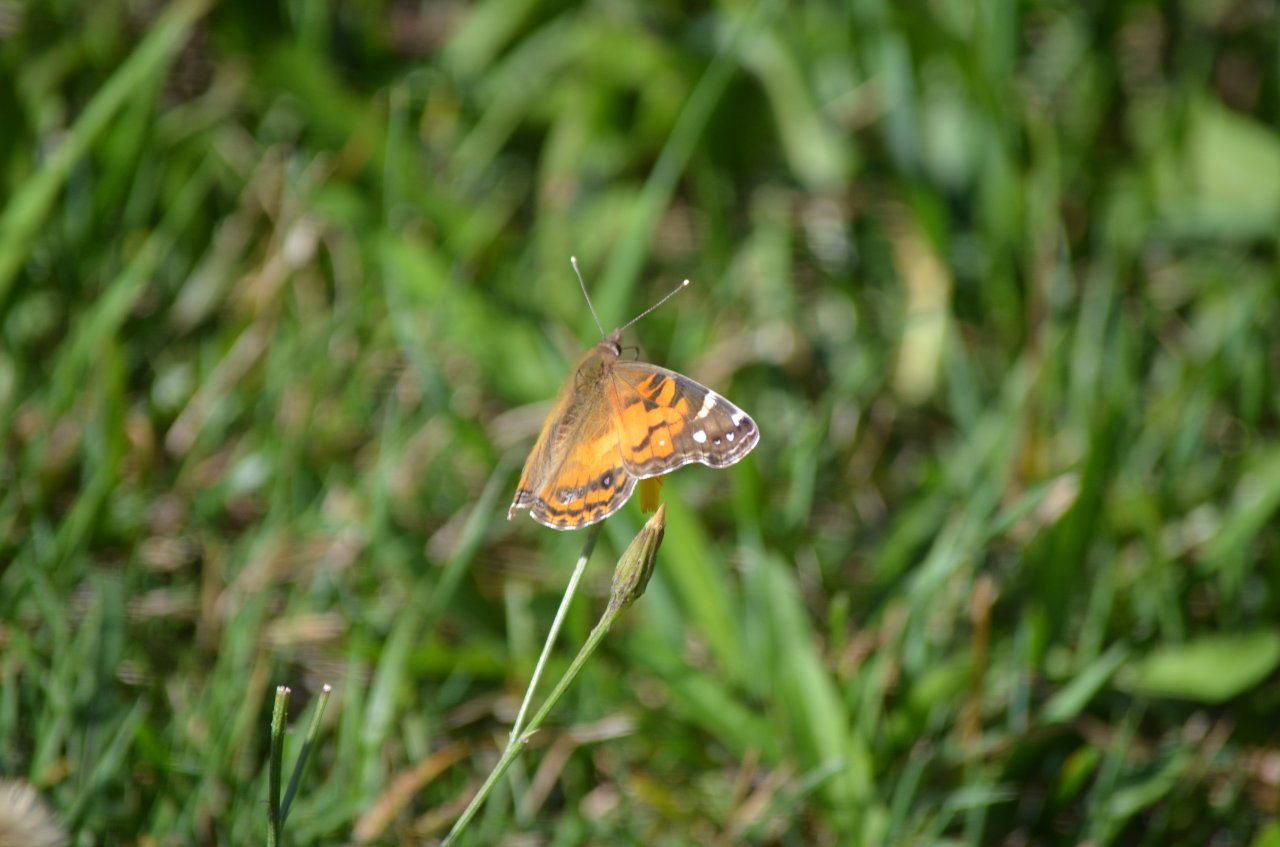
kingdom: Animalia
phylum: Arthropoda
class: Insecta
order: Lepidoptera
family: Nymphalidae
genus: Vanessa
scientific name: Vanessa virginiensis
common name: American Lady
